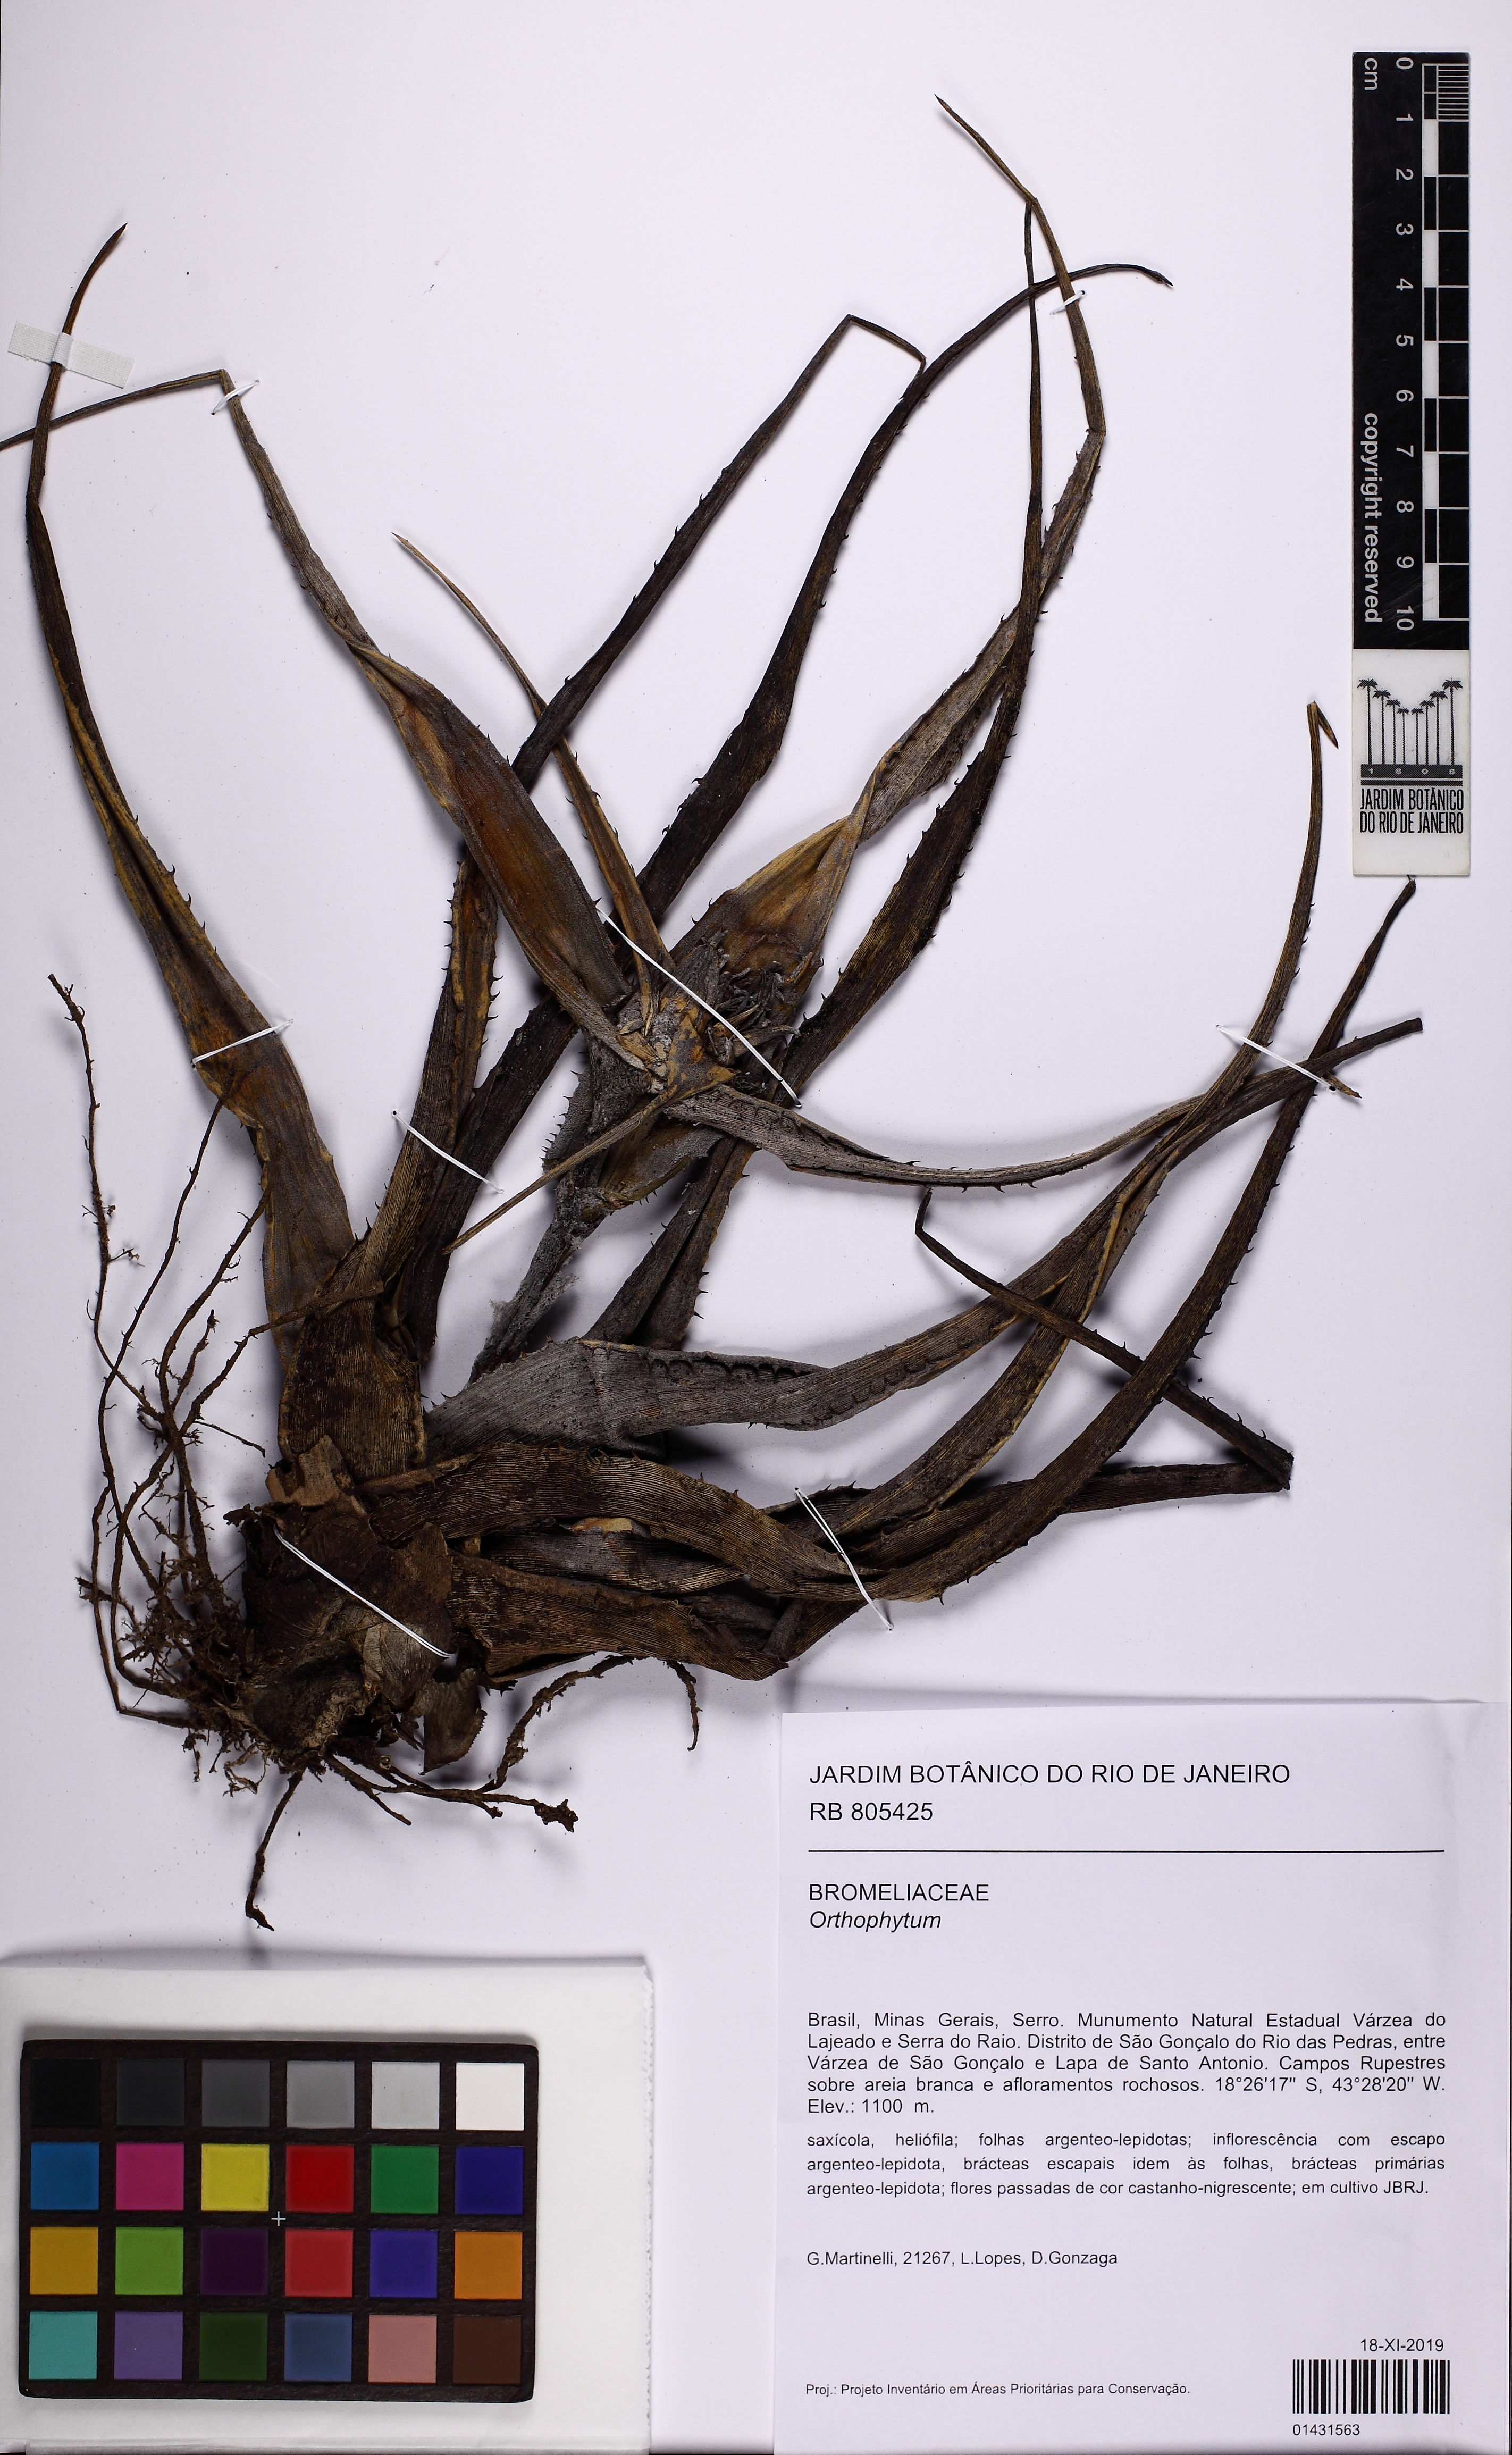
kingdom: Plantae
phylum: Tracheophyta
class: Liliopsida
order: Poales
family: Bromeliaceae
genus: Orthophytum
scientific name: Orthophytum
